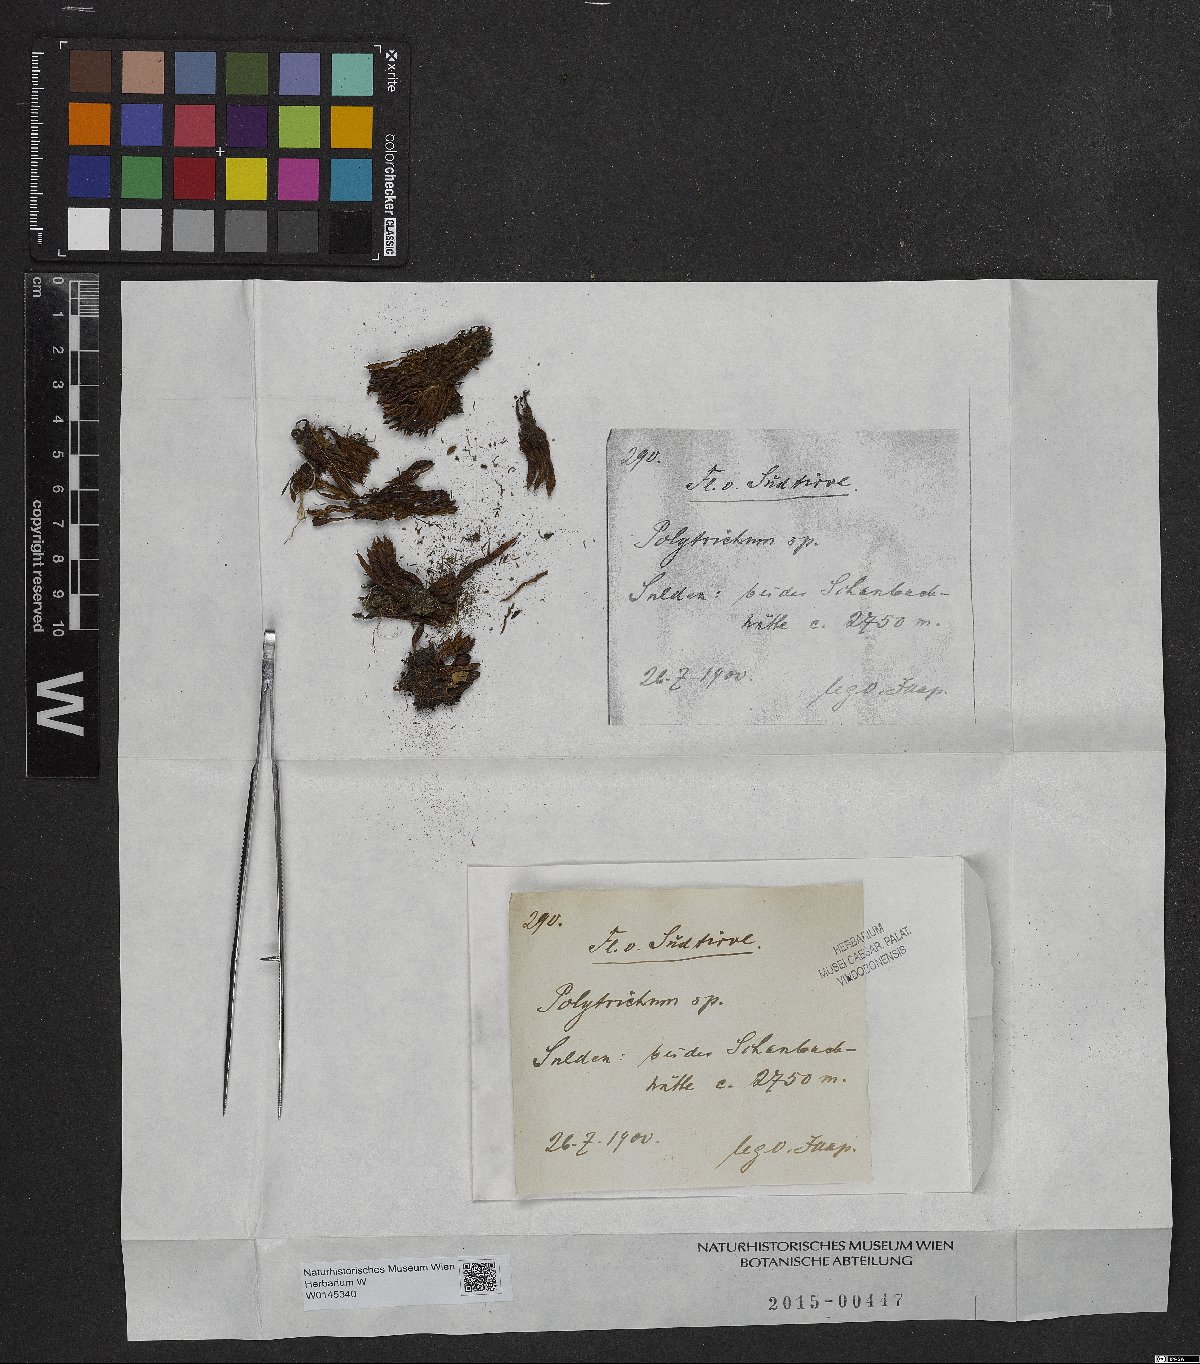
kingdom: Plantae
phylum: Bryophyta
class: Polytrichopsida
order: Polytrichales
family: Polytrichaceae
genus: Polytrichum
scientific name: Polytrichum
